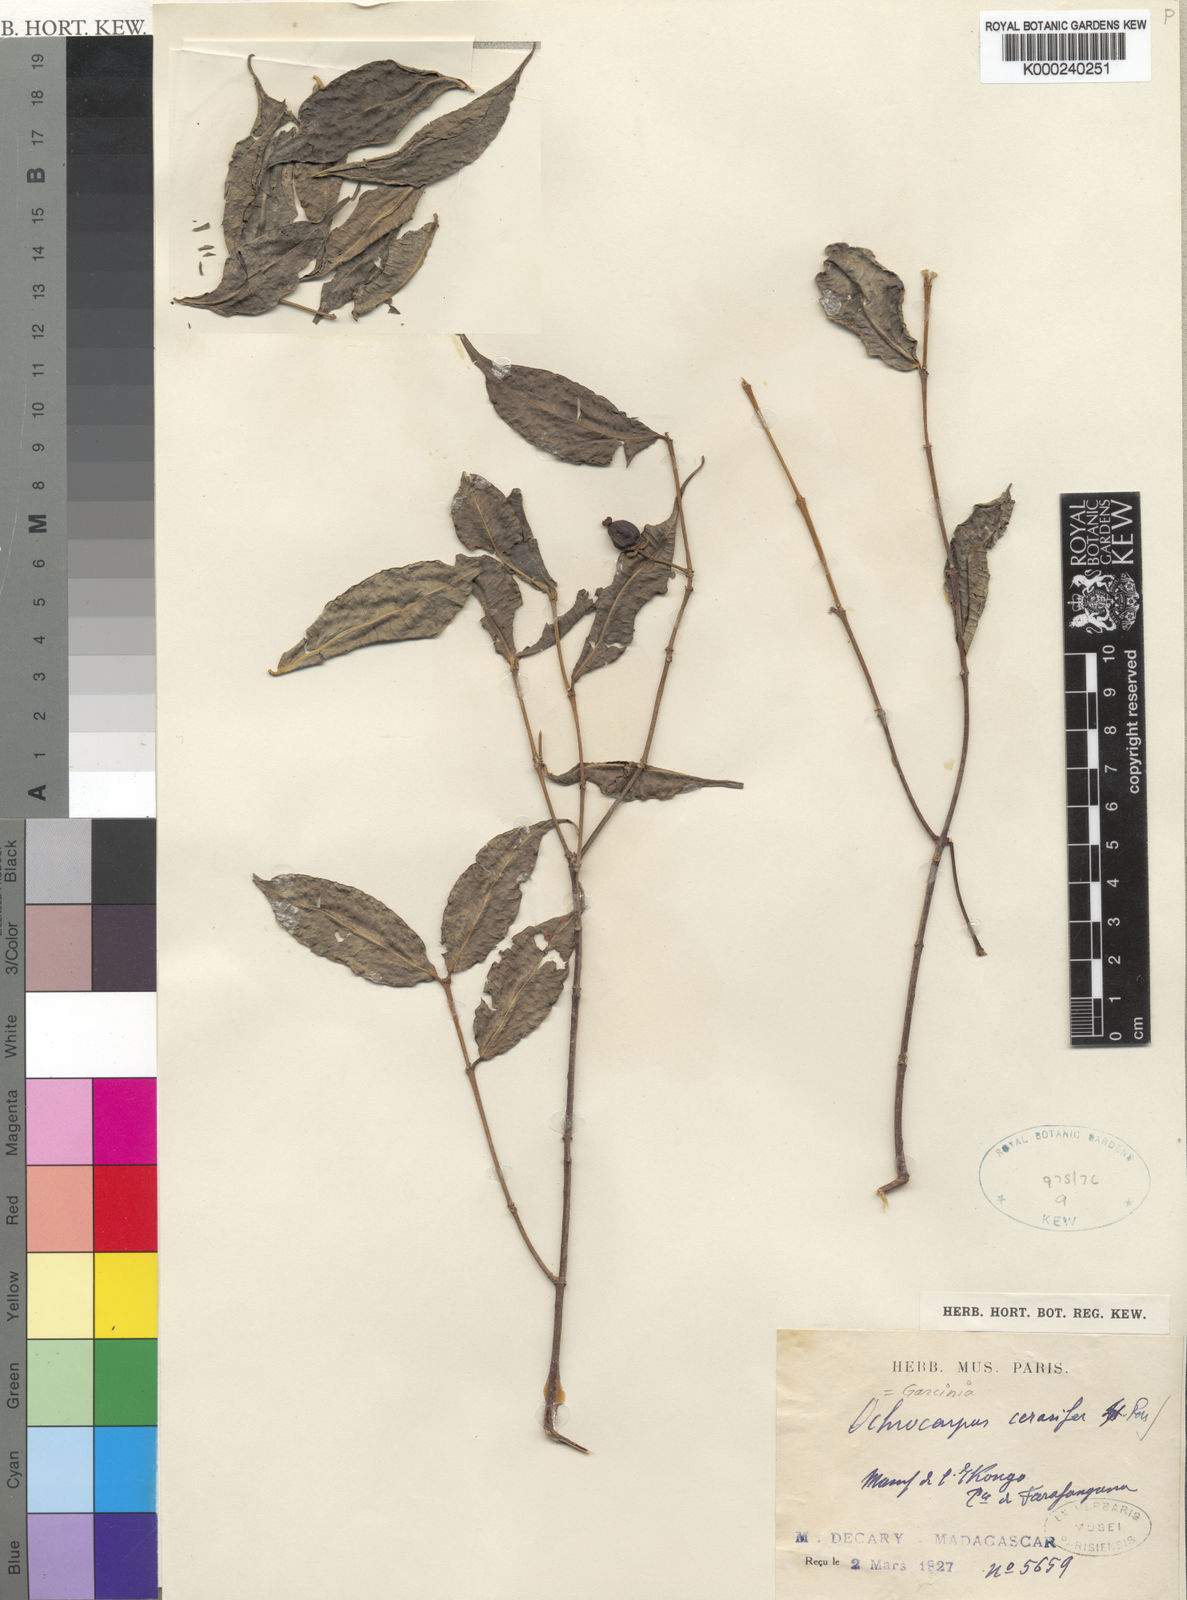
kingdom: Plantae
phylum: Tracheophyta
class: Magnoliopsida
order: Malpighiales
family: Clusiaceae
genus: Garcinia
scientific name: Garcinia
